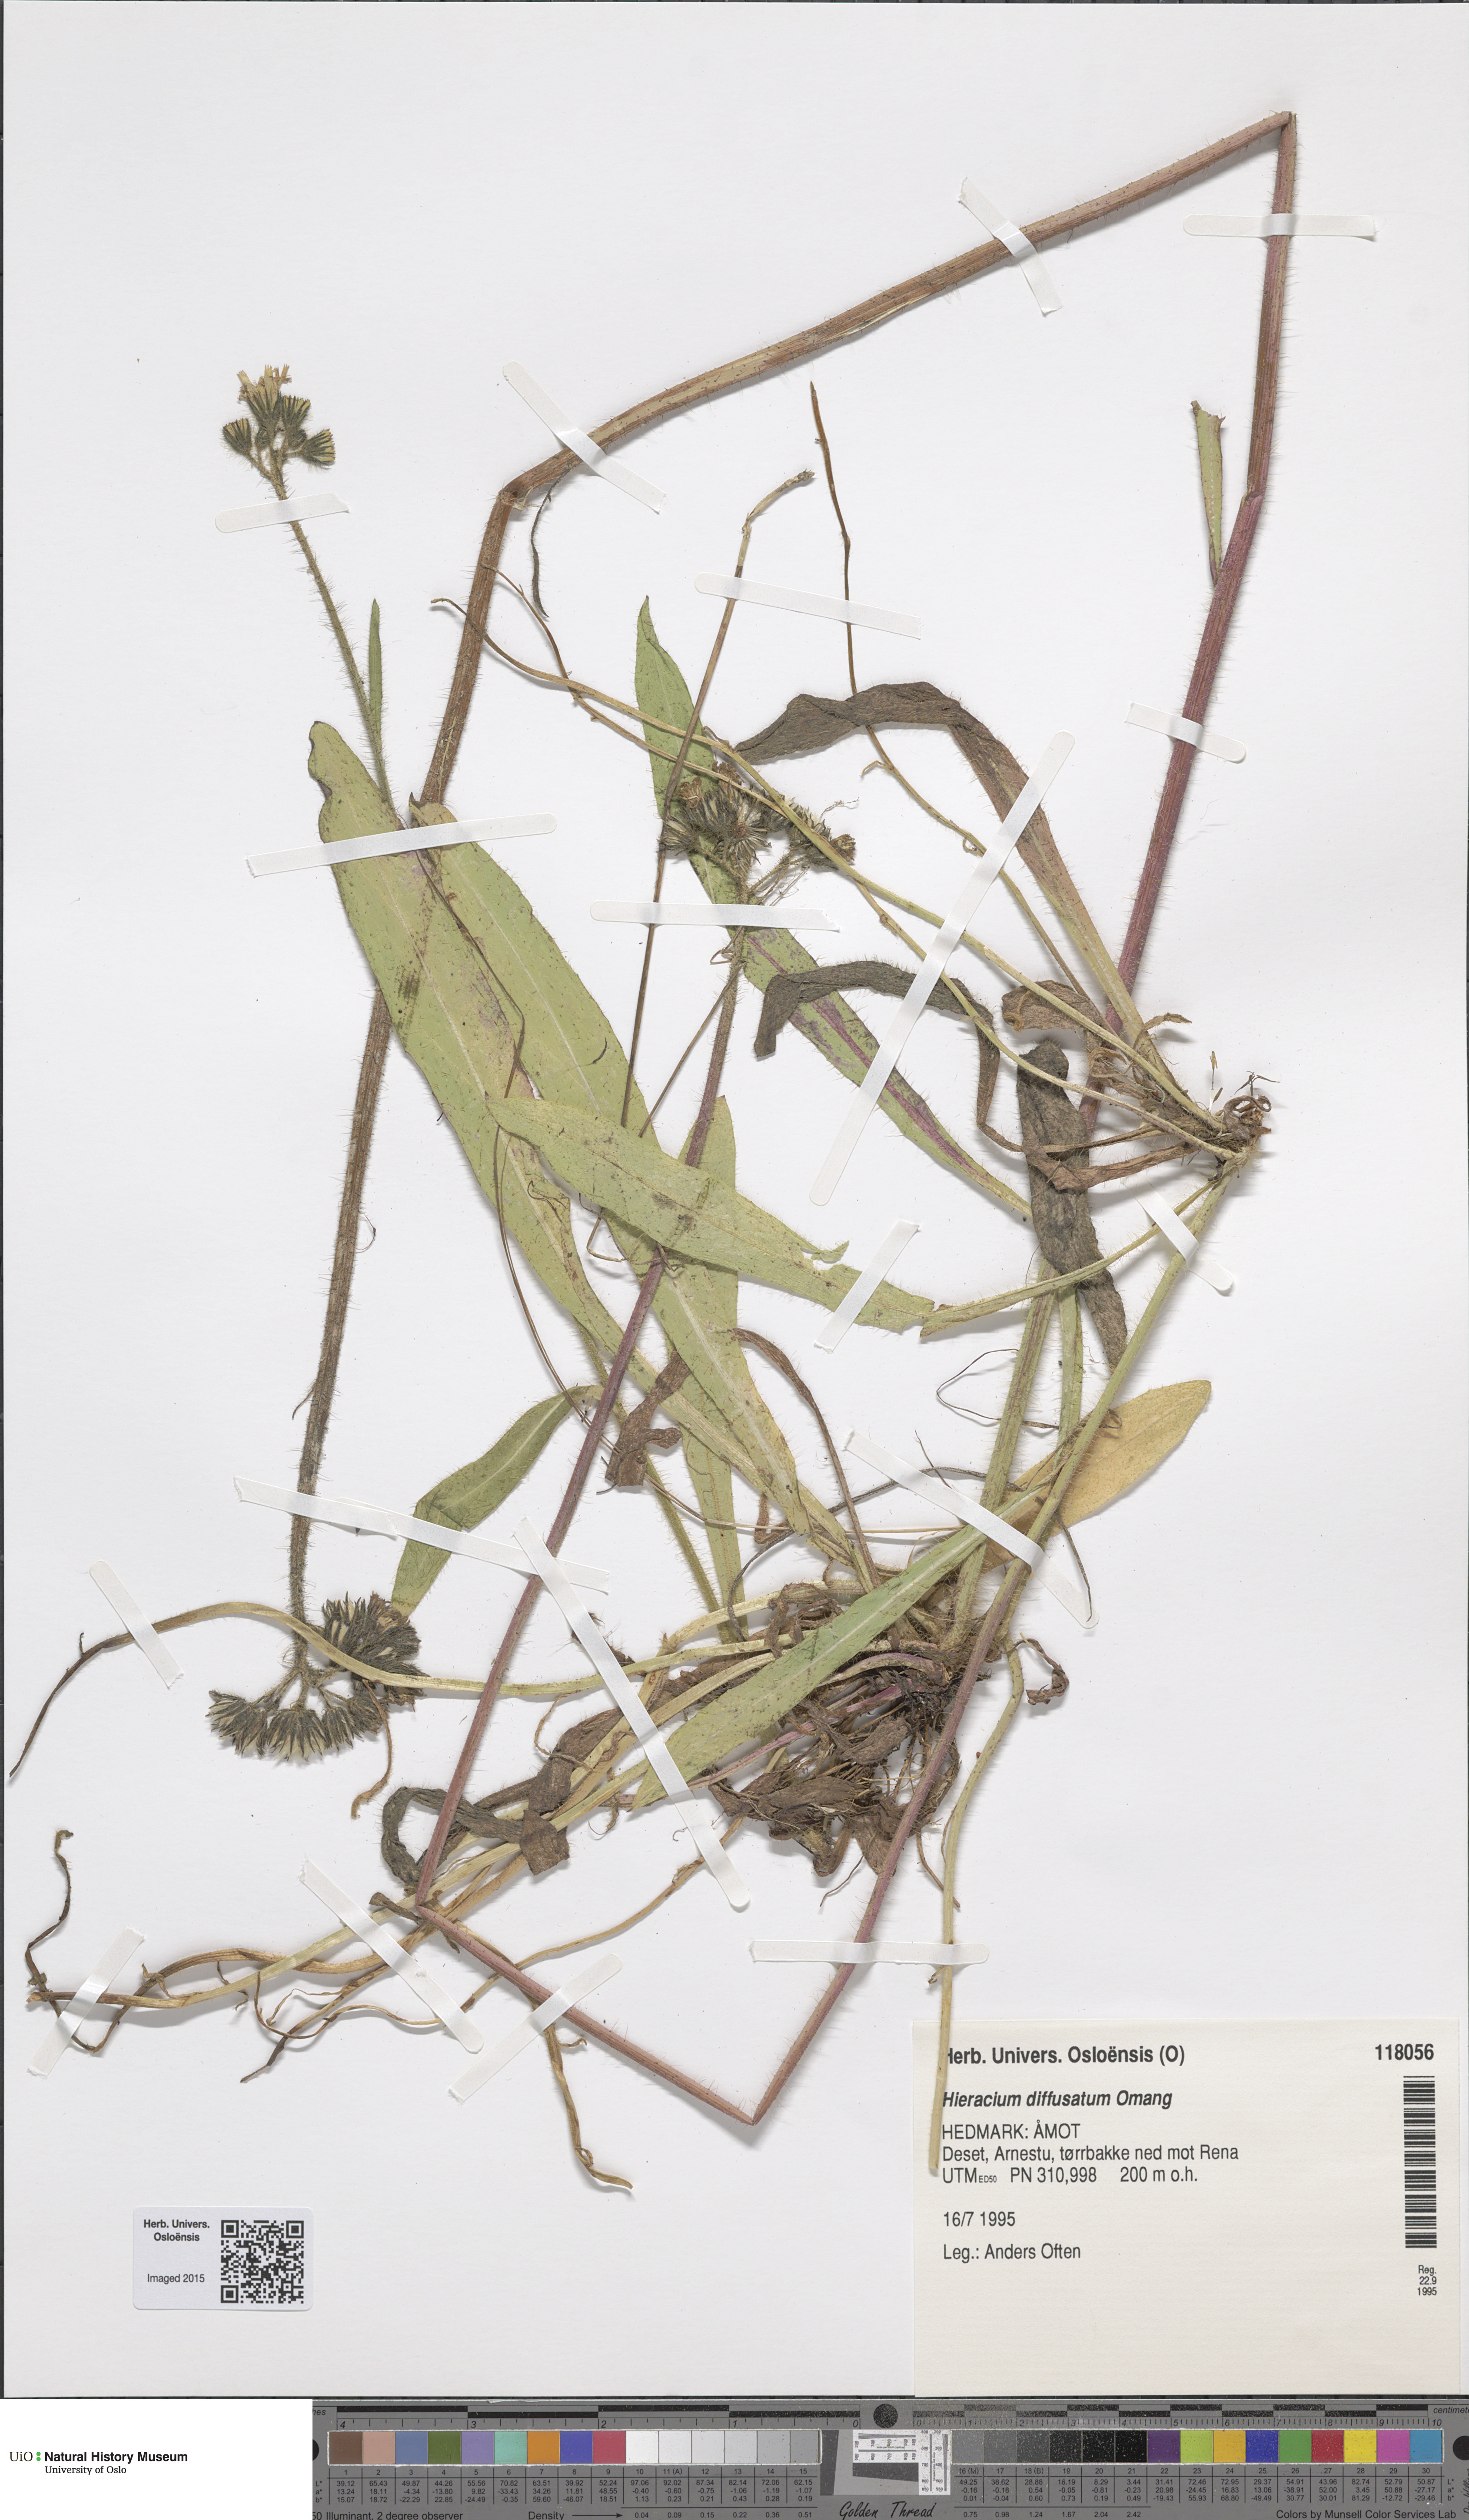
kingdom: Plantae
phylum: Tracheophyta
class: Magnoliopsida
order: Asterales
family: Asteraceae
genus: Pilosella
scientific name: Pilosella dubia
